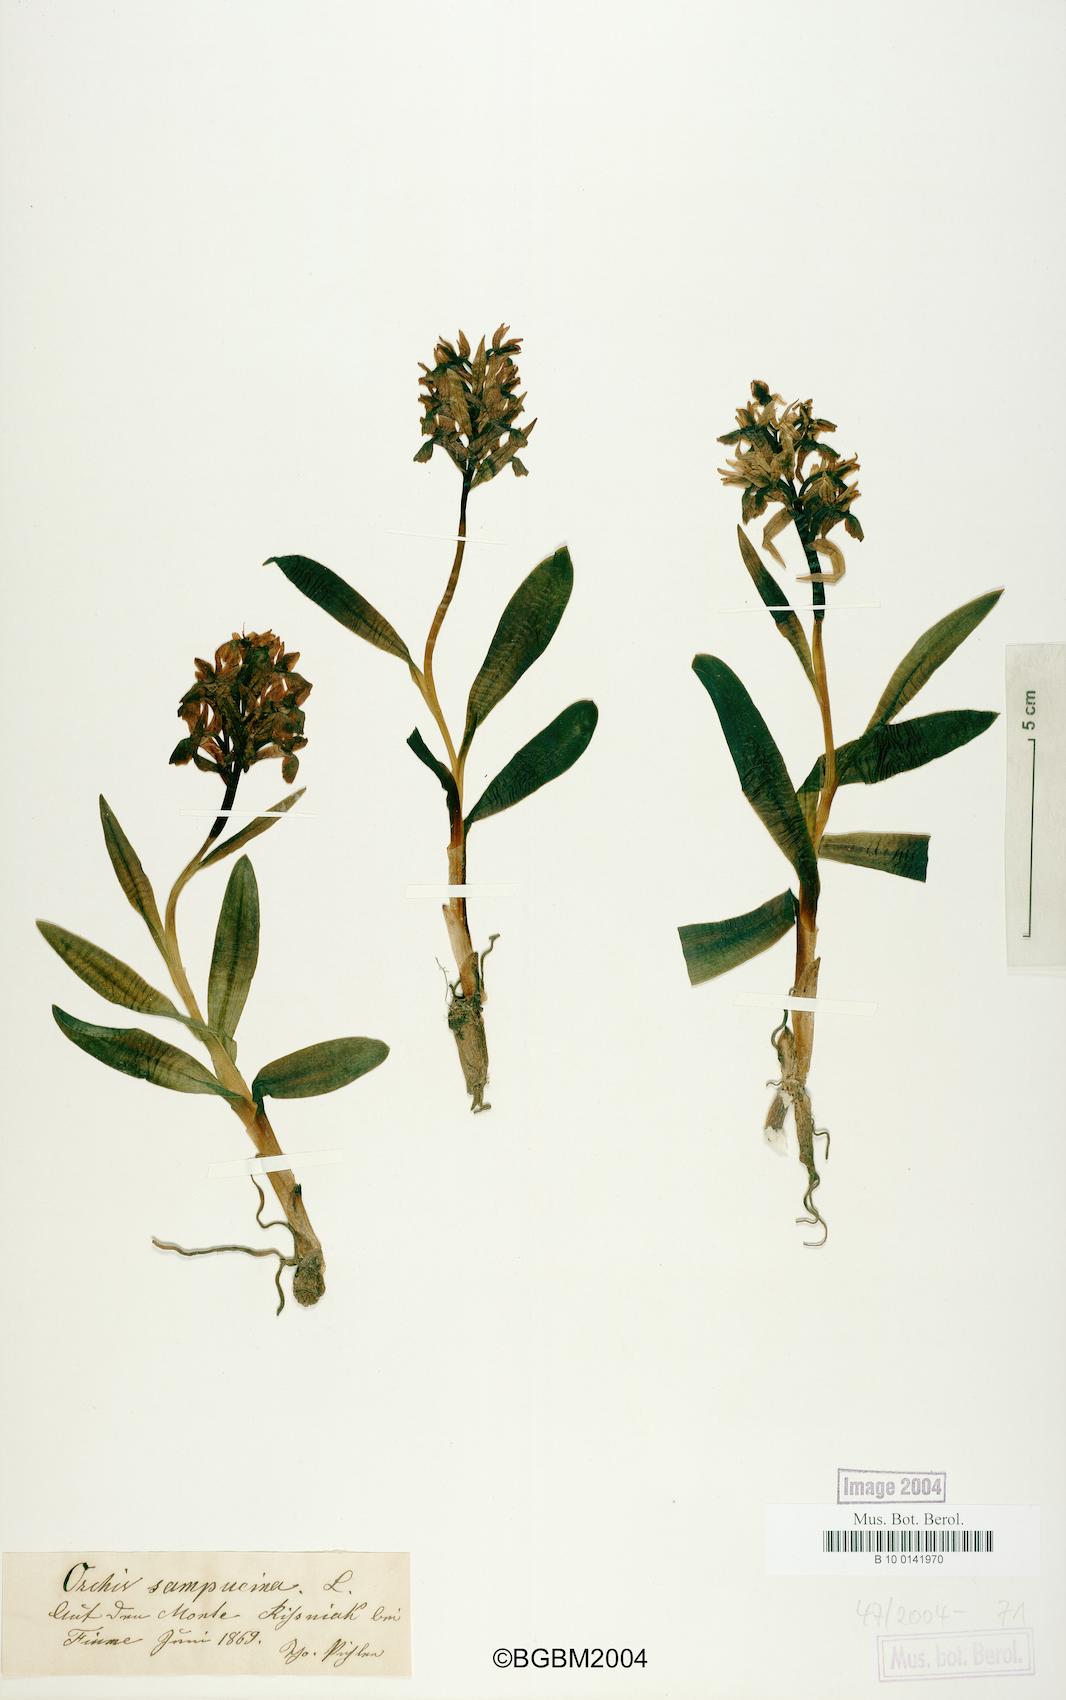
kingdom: Plantae
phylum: Tracheophyta
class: Liliopsida
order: Asparagales
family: Orchidaceae
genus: Dactylorhiza
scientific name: Dactylorhiza sambucina
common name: Elder-flowered orchid
